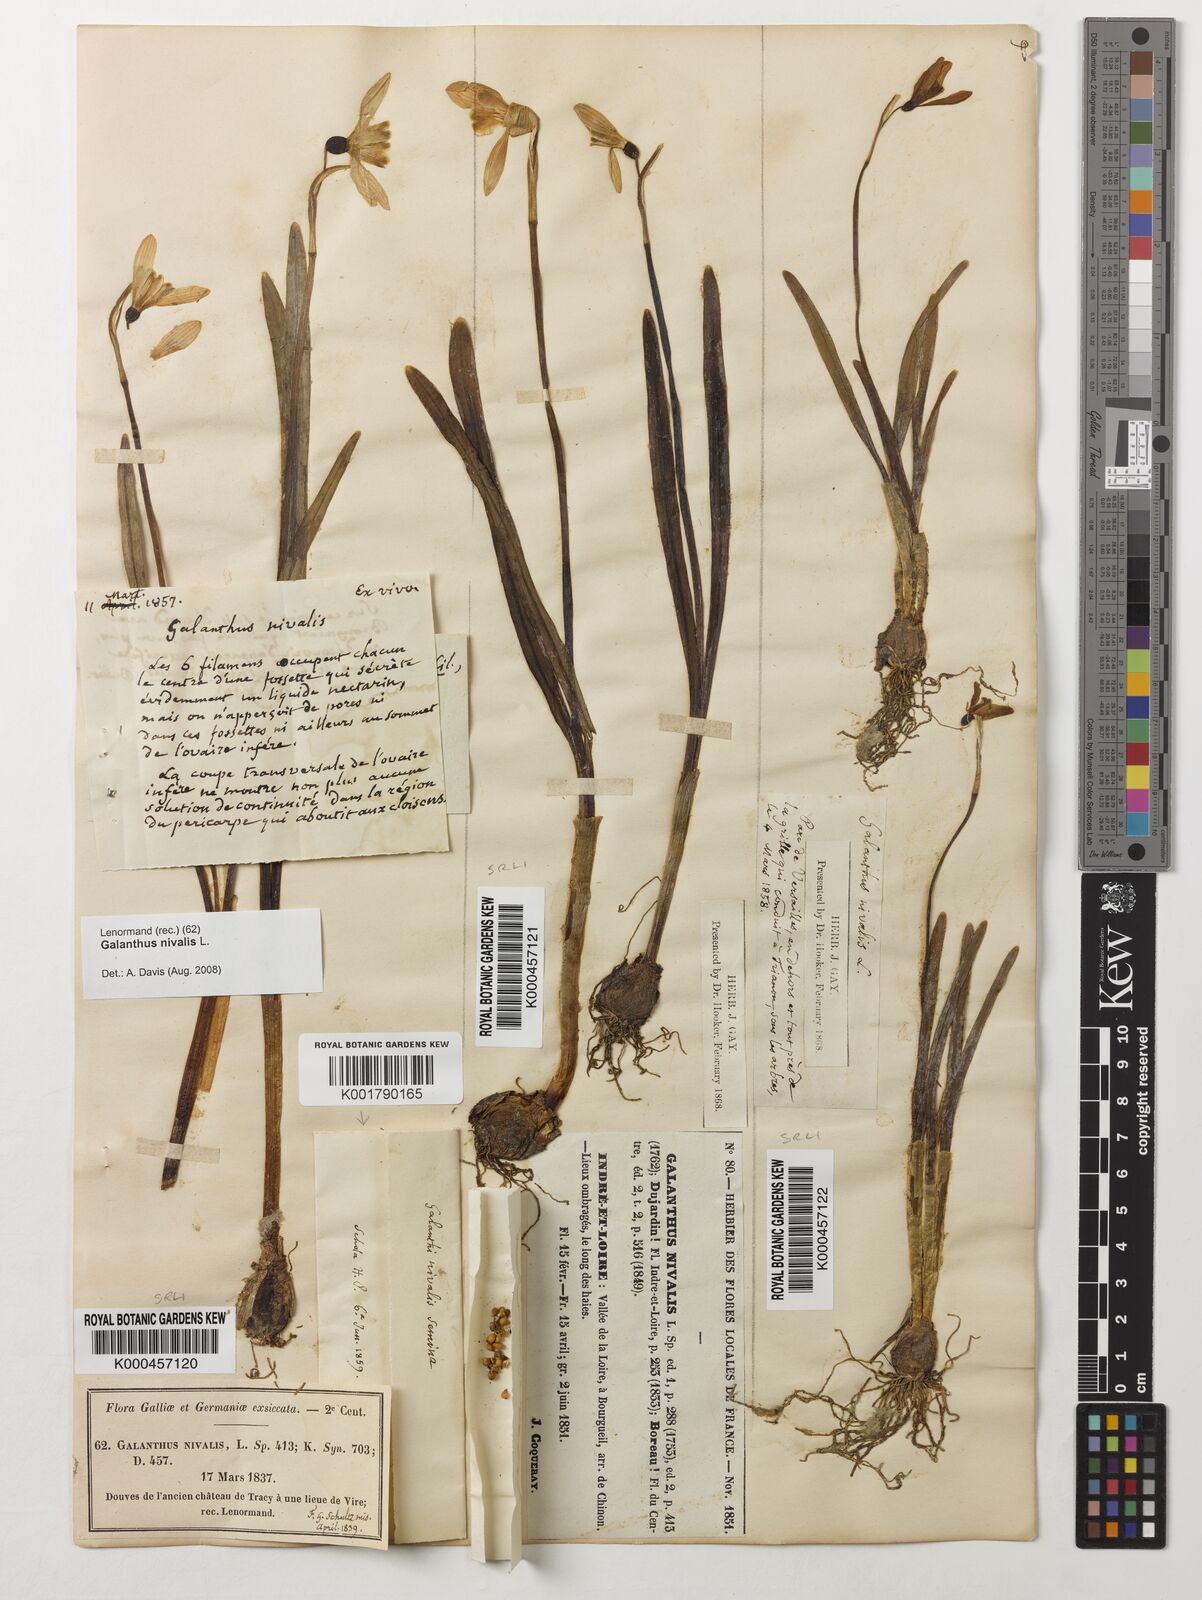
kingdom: Plantae
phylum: Tracheophyta
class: Liliopsida
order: Asparagales
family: Amaryllidaceae
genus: Galanthus
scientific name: Galanthus nivalis
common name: Snowdrop
